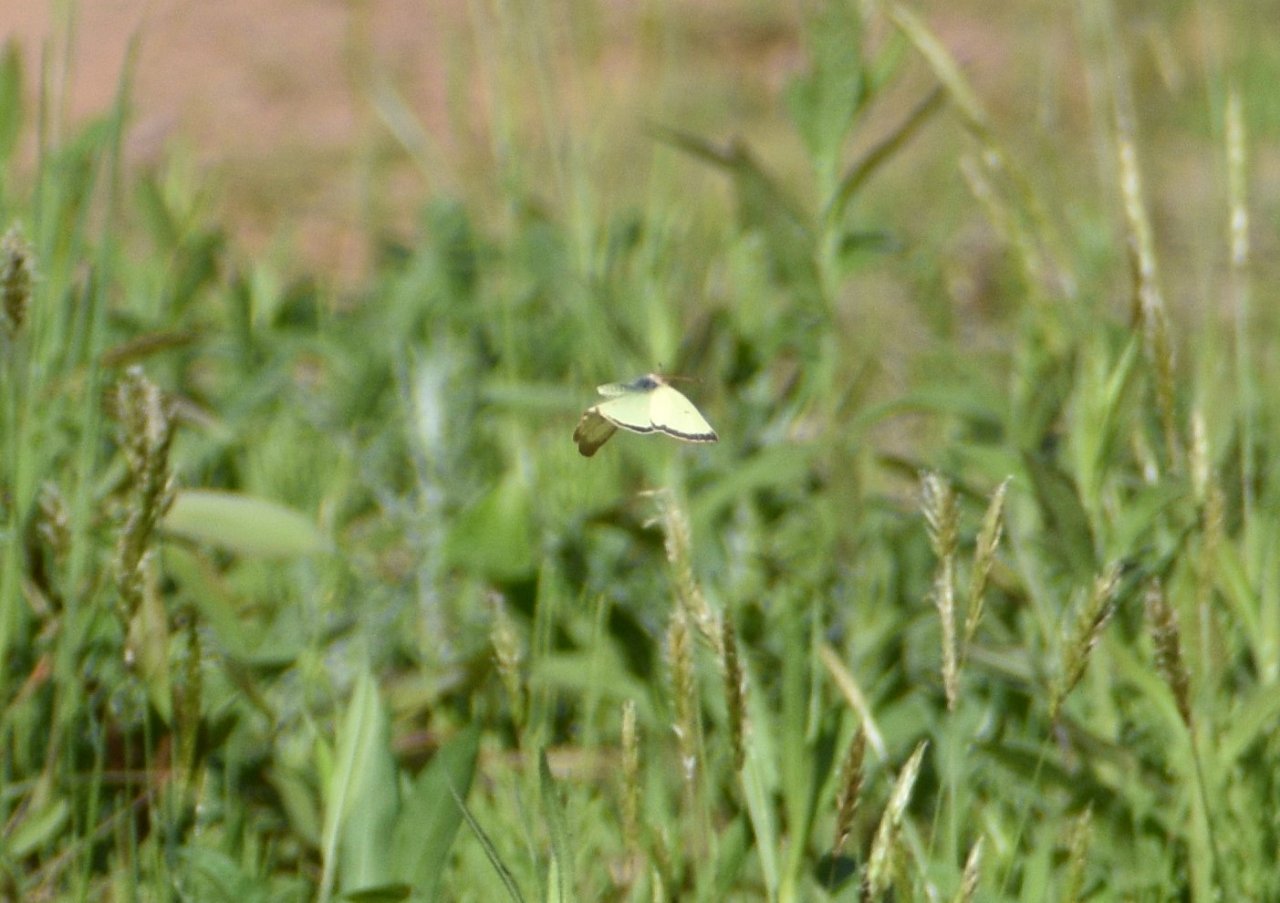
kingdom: Animalia
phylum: Arthropoda
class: Insecta
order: Lepidoptera
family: Pieridae
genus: Colias
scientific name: Colias philodice
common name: Clouded Sulphur
